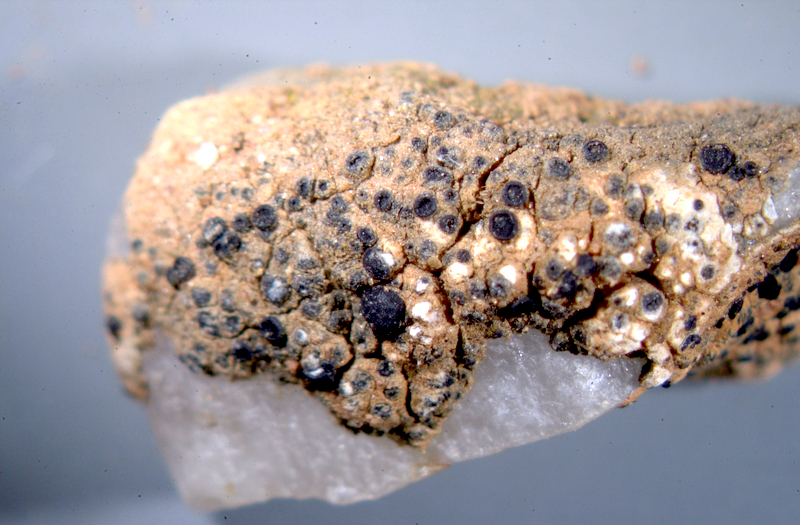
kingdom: Fungi
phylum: Ascomycota
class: Lecanoromycetes
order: Caliciales
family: Caliciaceae
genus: Buellia
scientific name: Buellia
